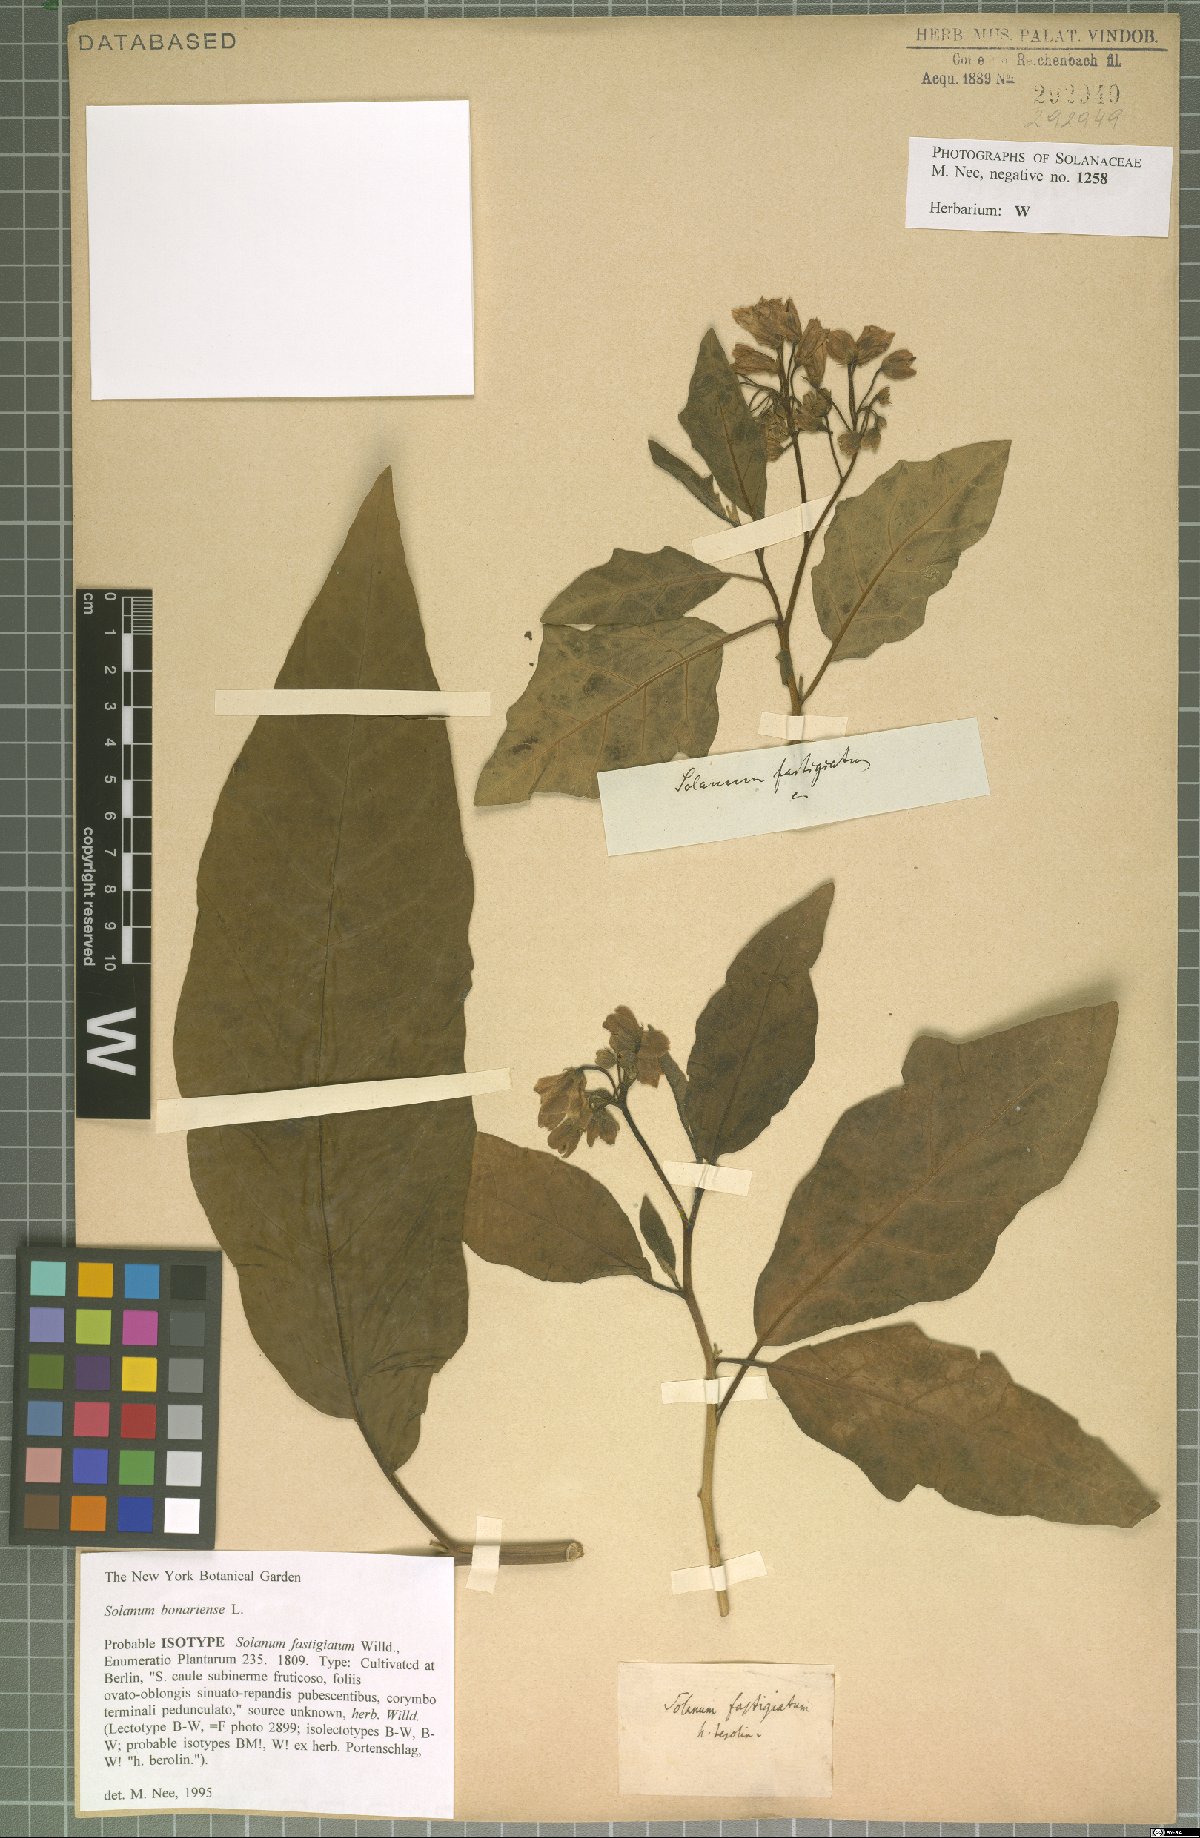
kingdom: Plantae
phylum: Tracheophyta
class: Magnoliopsida
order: Solanales
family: Solanaceae
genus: Solanum
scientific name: Solanum bonariense
